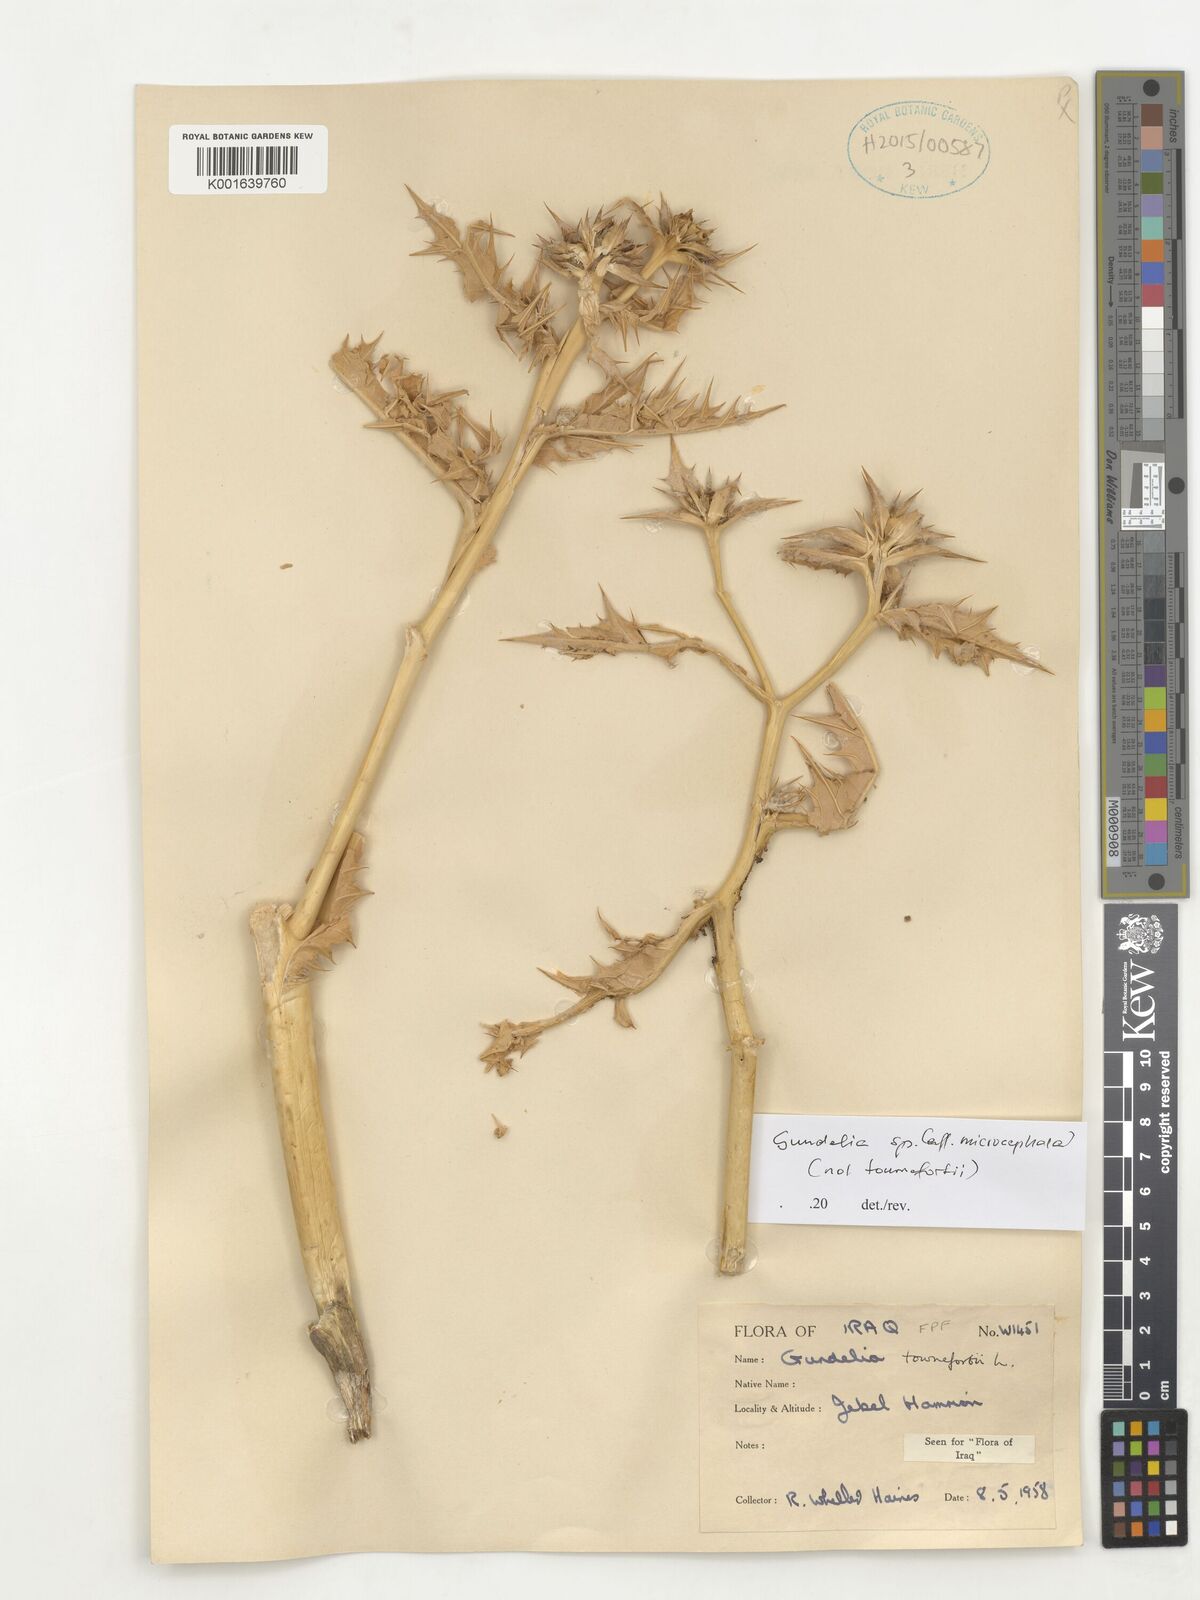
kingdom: Plantae
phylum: Tracheophyta
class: Magnoliopsida
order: Asterales
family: Asteraceae
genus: Gundelia
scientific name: Gundelia microcephala
